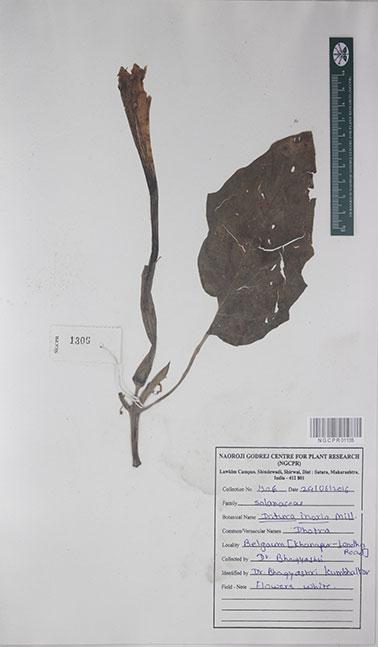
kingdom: Plantae
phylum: Tracheophyta
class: Magnoliopsida
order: Solanales
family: Solanaceae
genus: Datura
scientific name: Datura innoxia
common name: Downy thorn-apple
